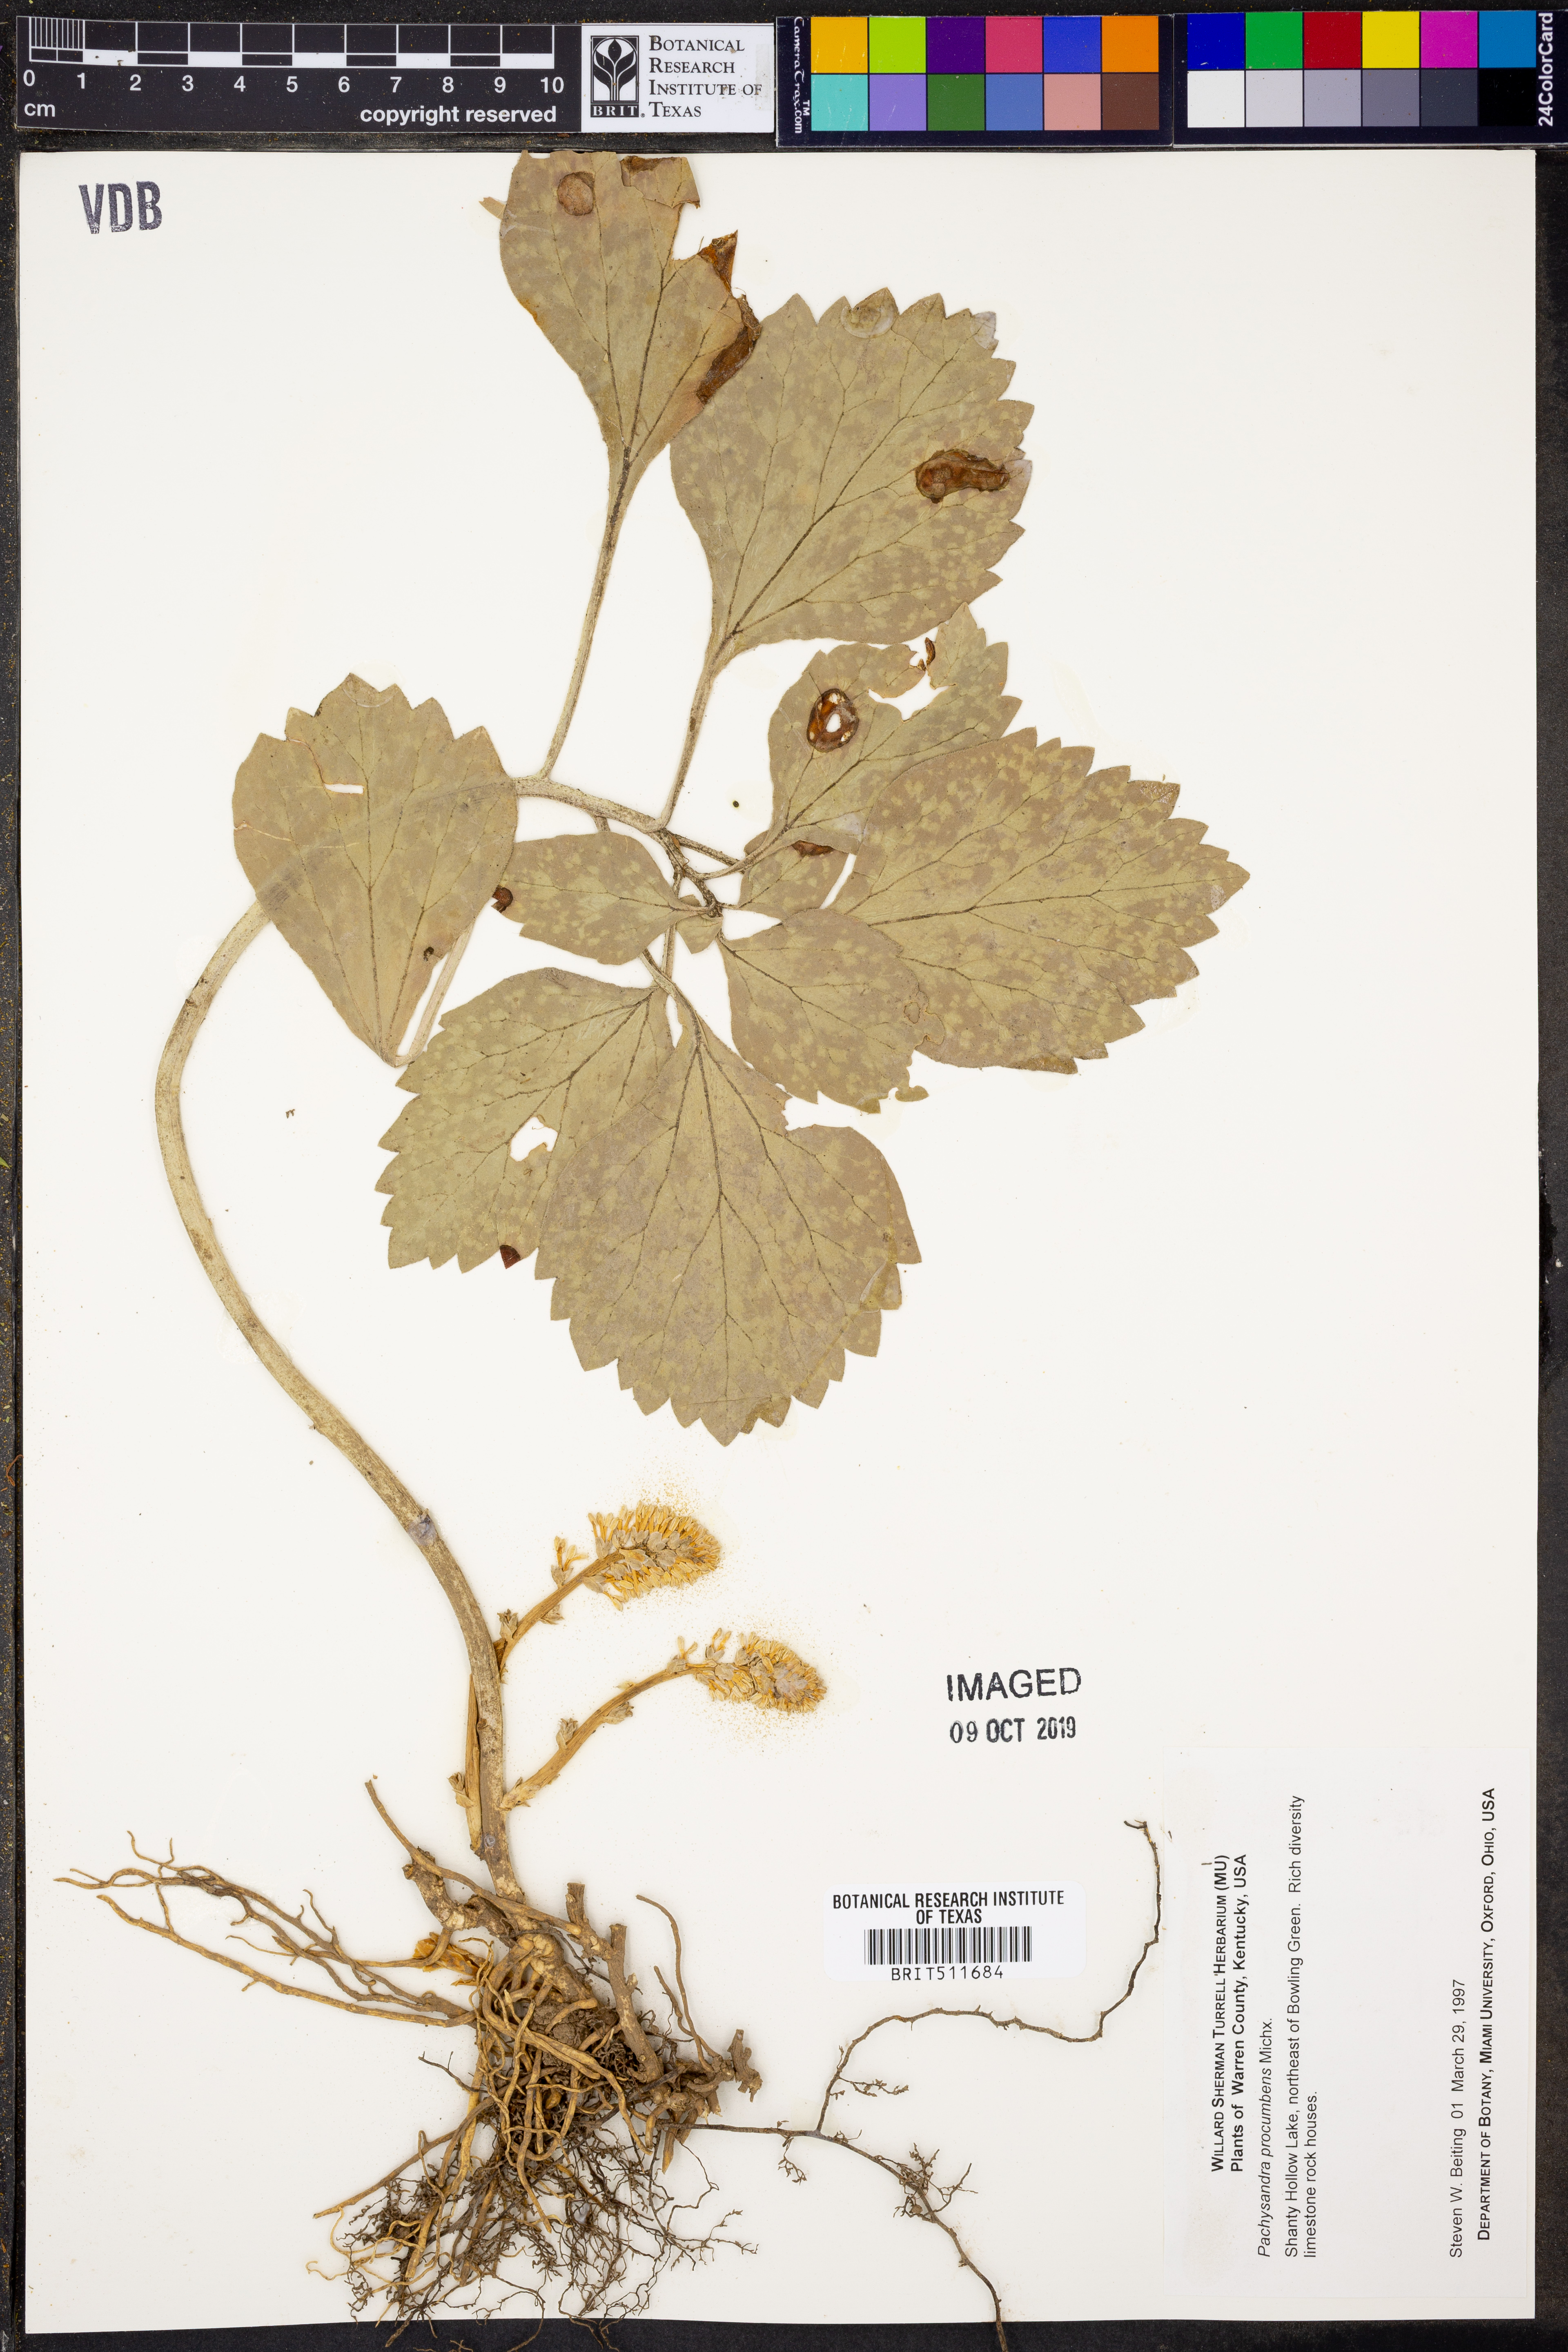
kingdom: Plantae
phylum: Tracheophyta
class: Magnoliopsida
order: Buxales
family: Buxaceae
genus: Pachysandra
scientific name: Pachysandra procumbens
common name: Mountain-spurge
